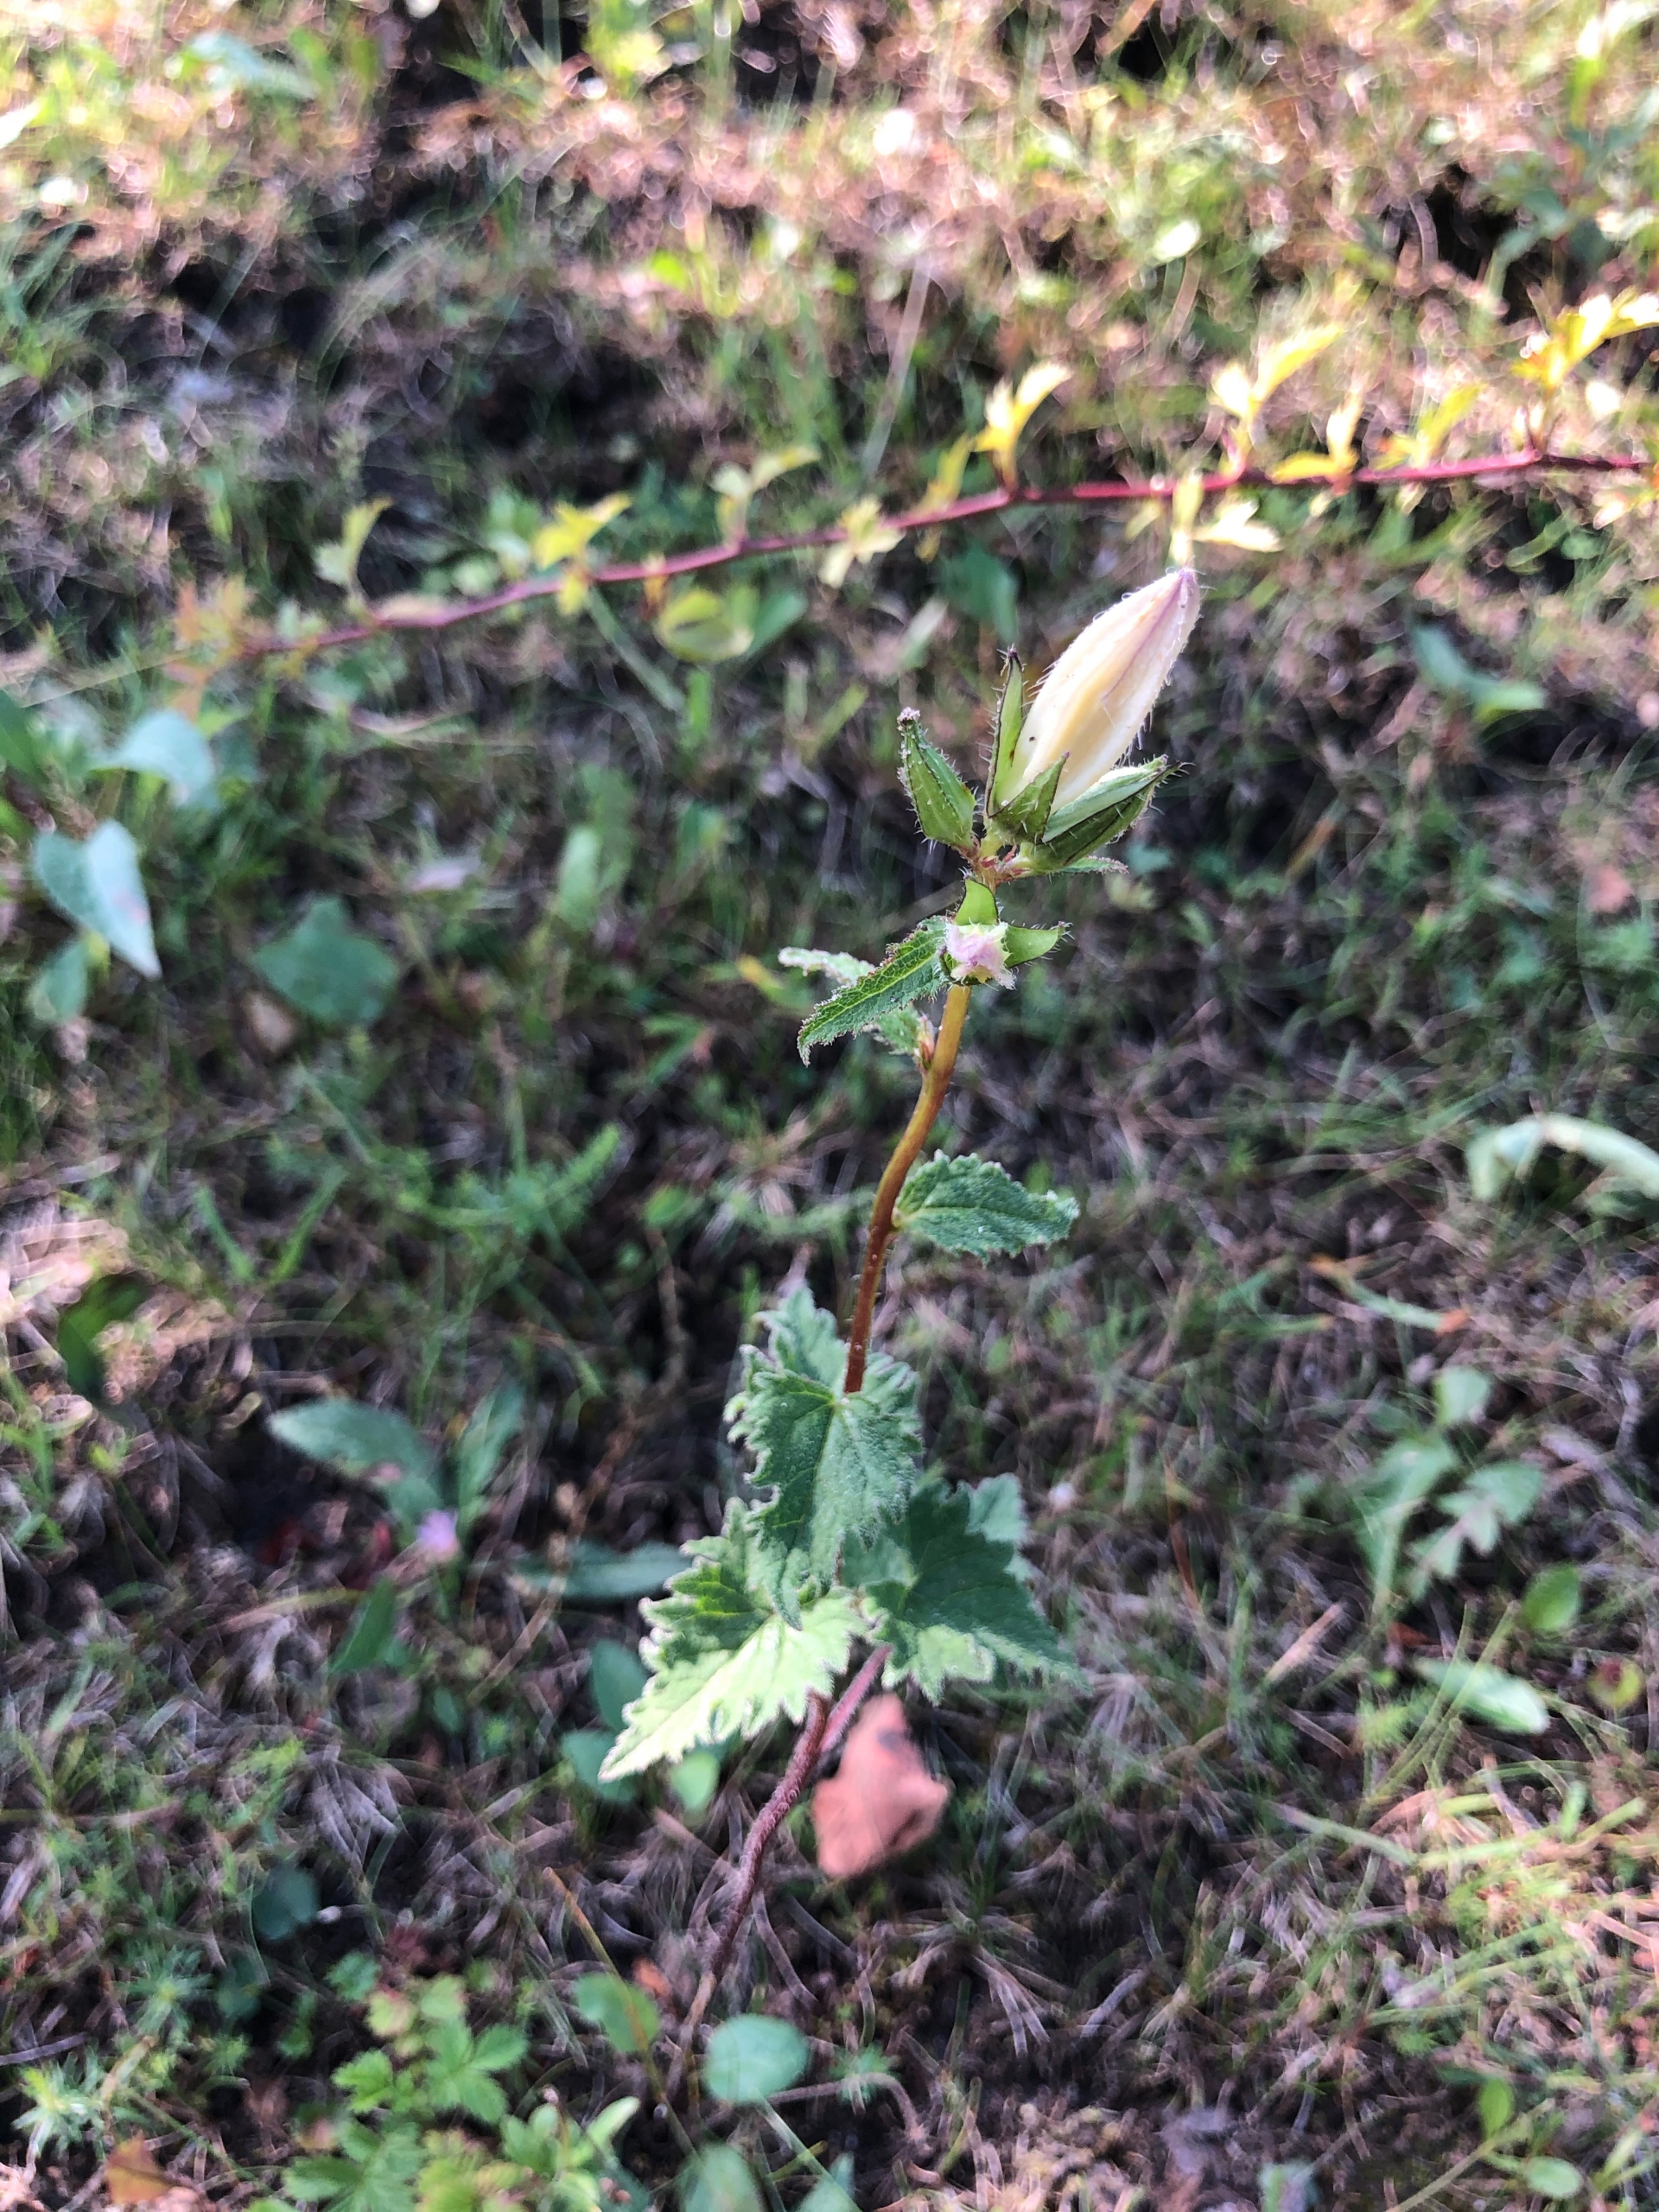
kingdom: Plantae
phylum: Tracheophyta
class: Magnoliopsida
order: Asterales
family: Campanulaceae
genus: Campanula
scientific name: Campanula trachelium
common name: Nælde-klokke
